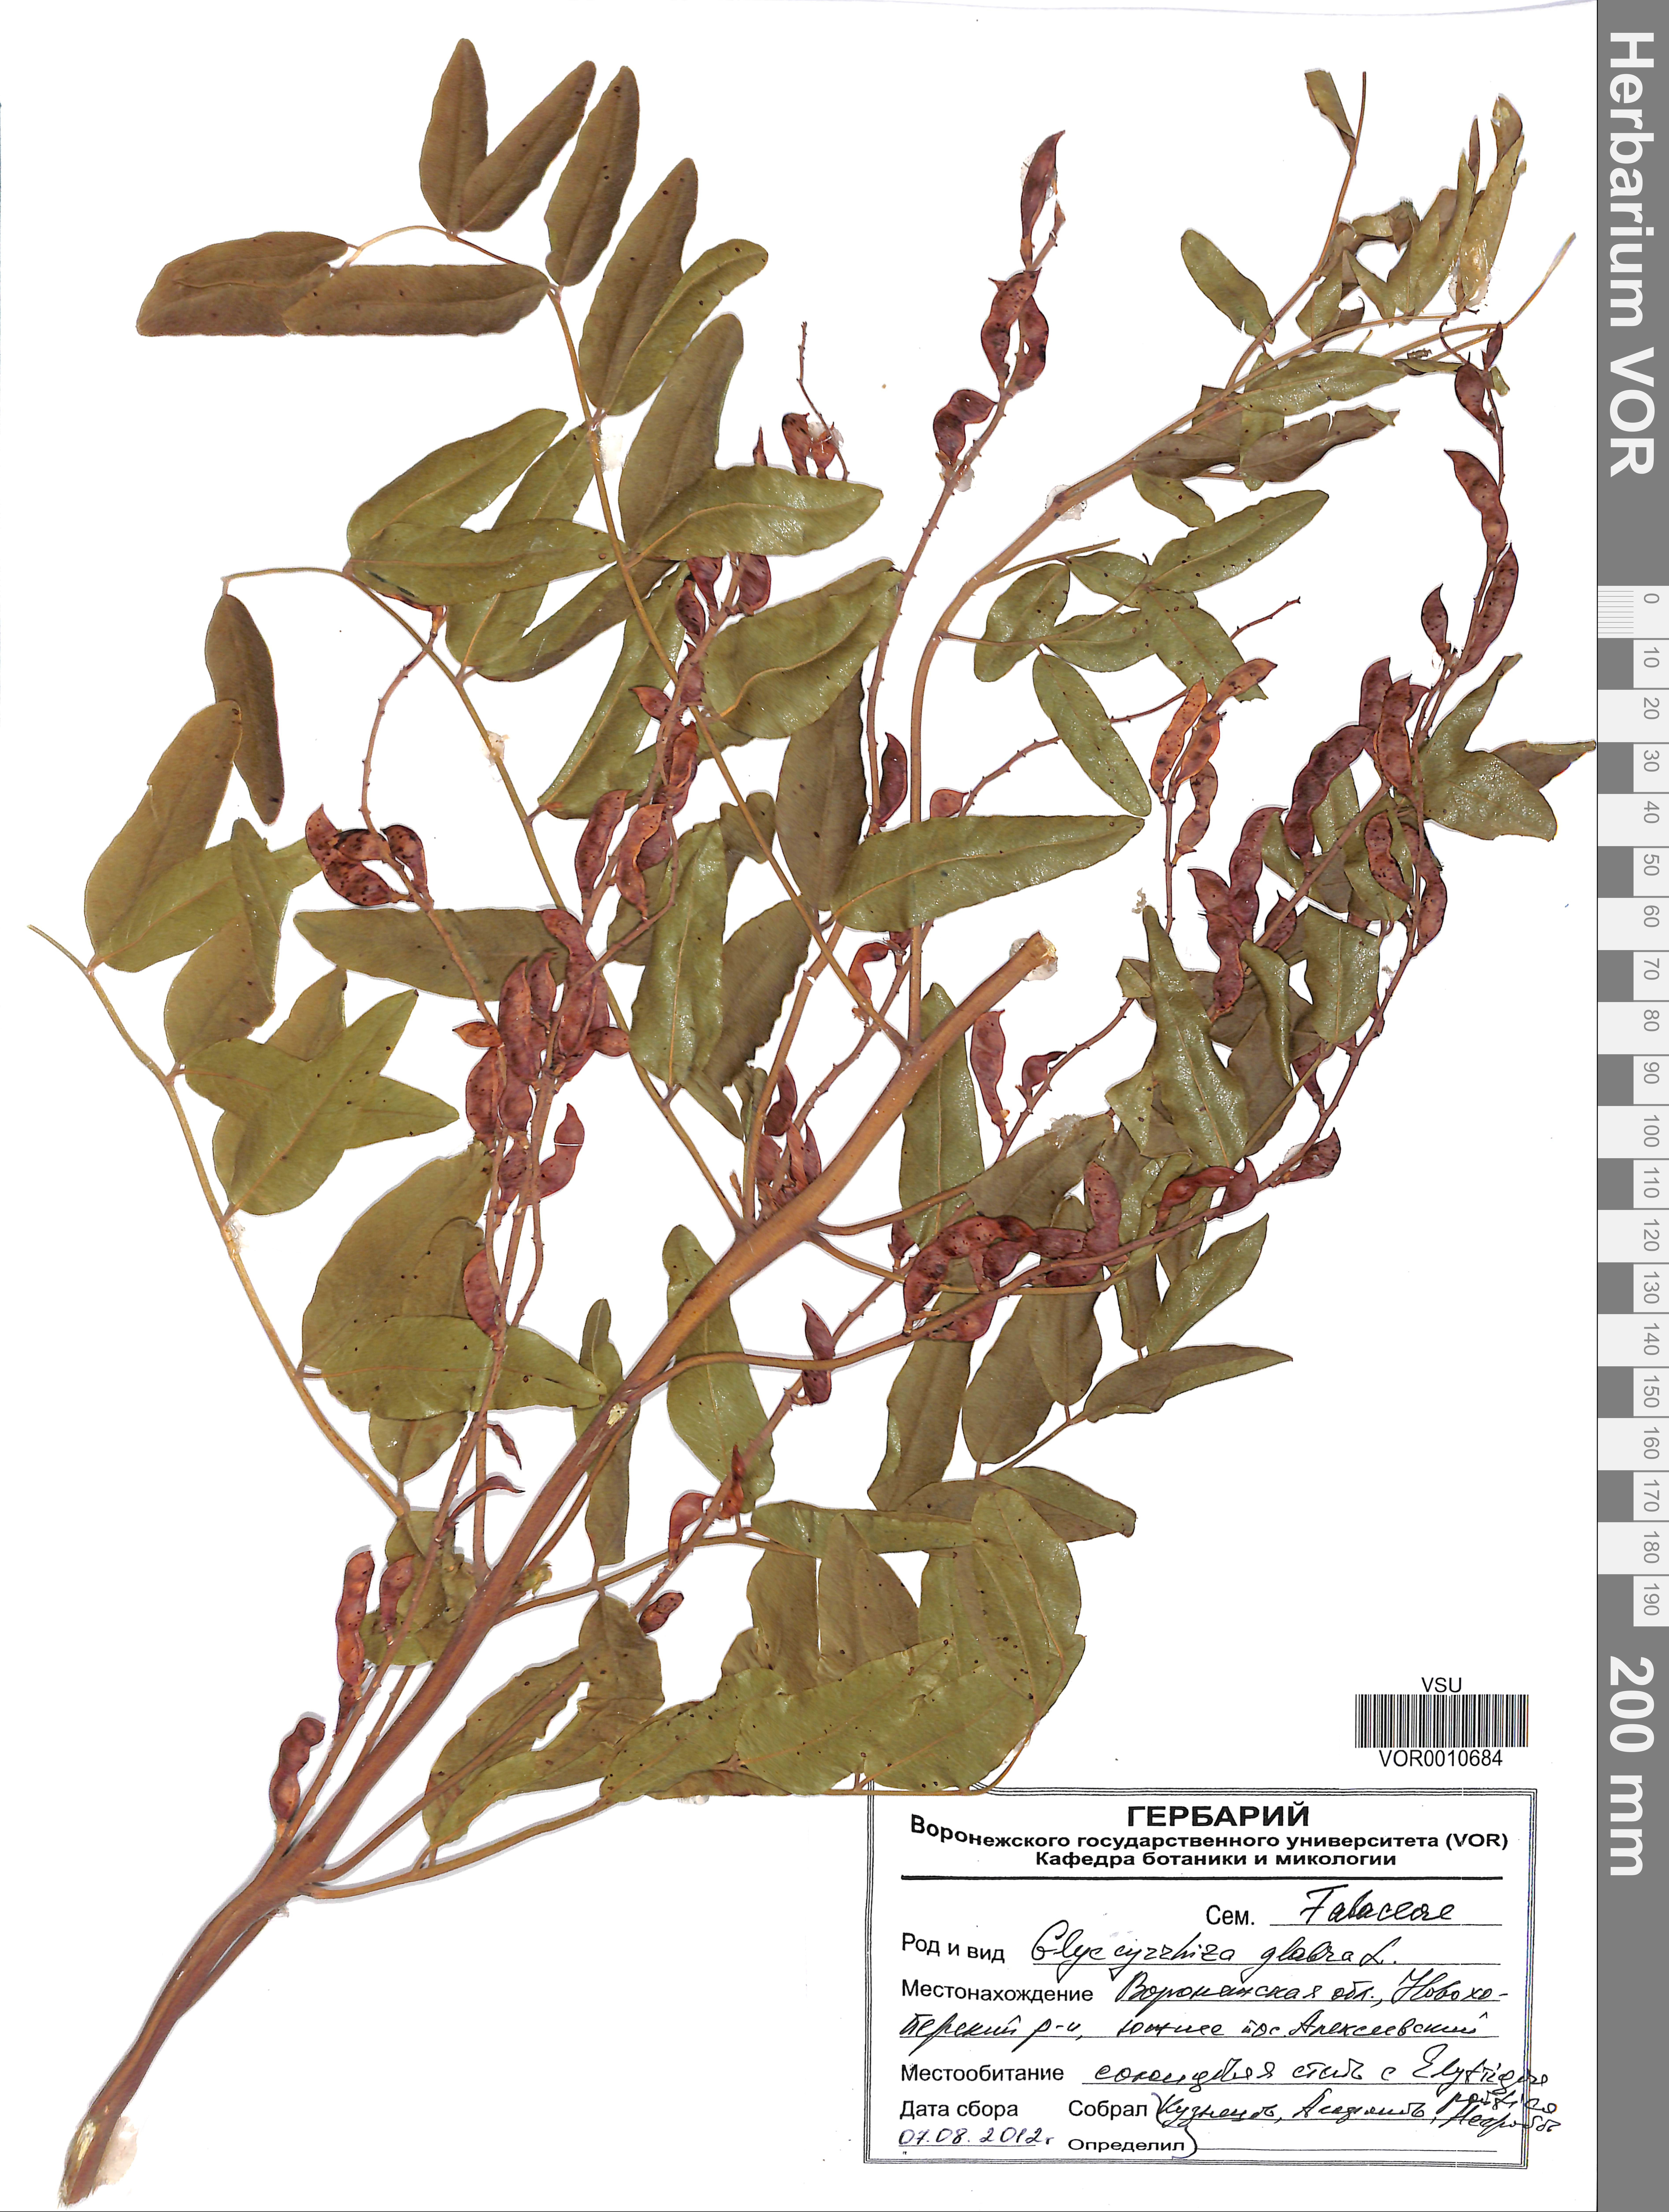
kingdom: Plantae
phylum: Tracheophyta
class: Magnoliopsida
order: Fabales
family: Fabaceae
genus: Glycyrrhiza
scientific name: Glycyrrhiza glabra
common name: Liquorice
